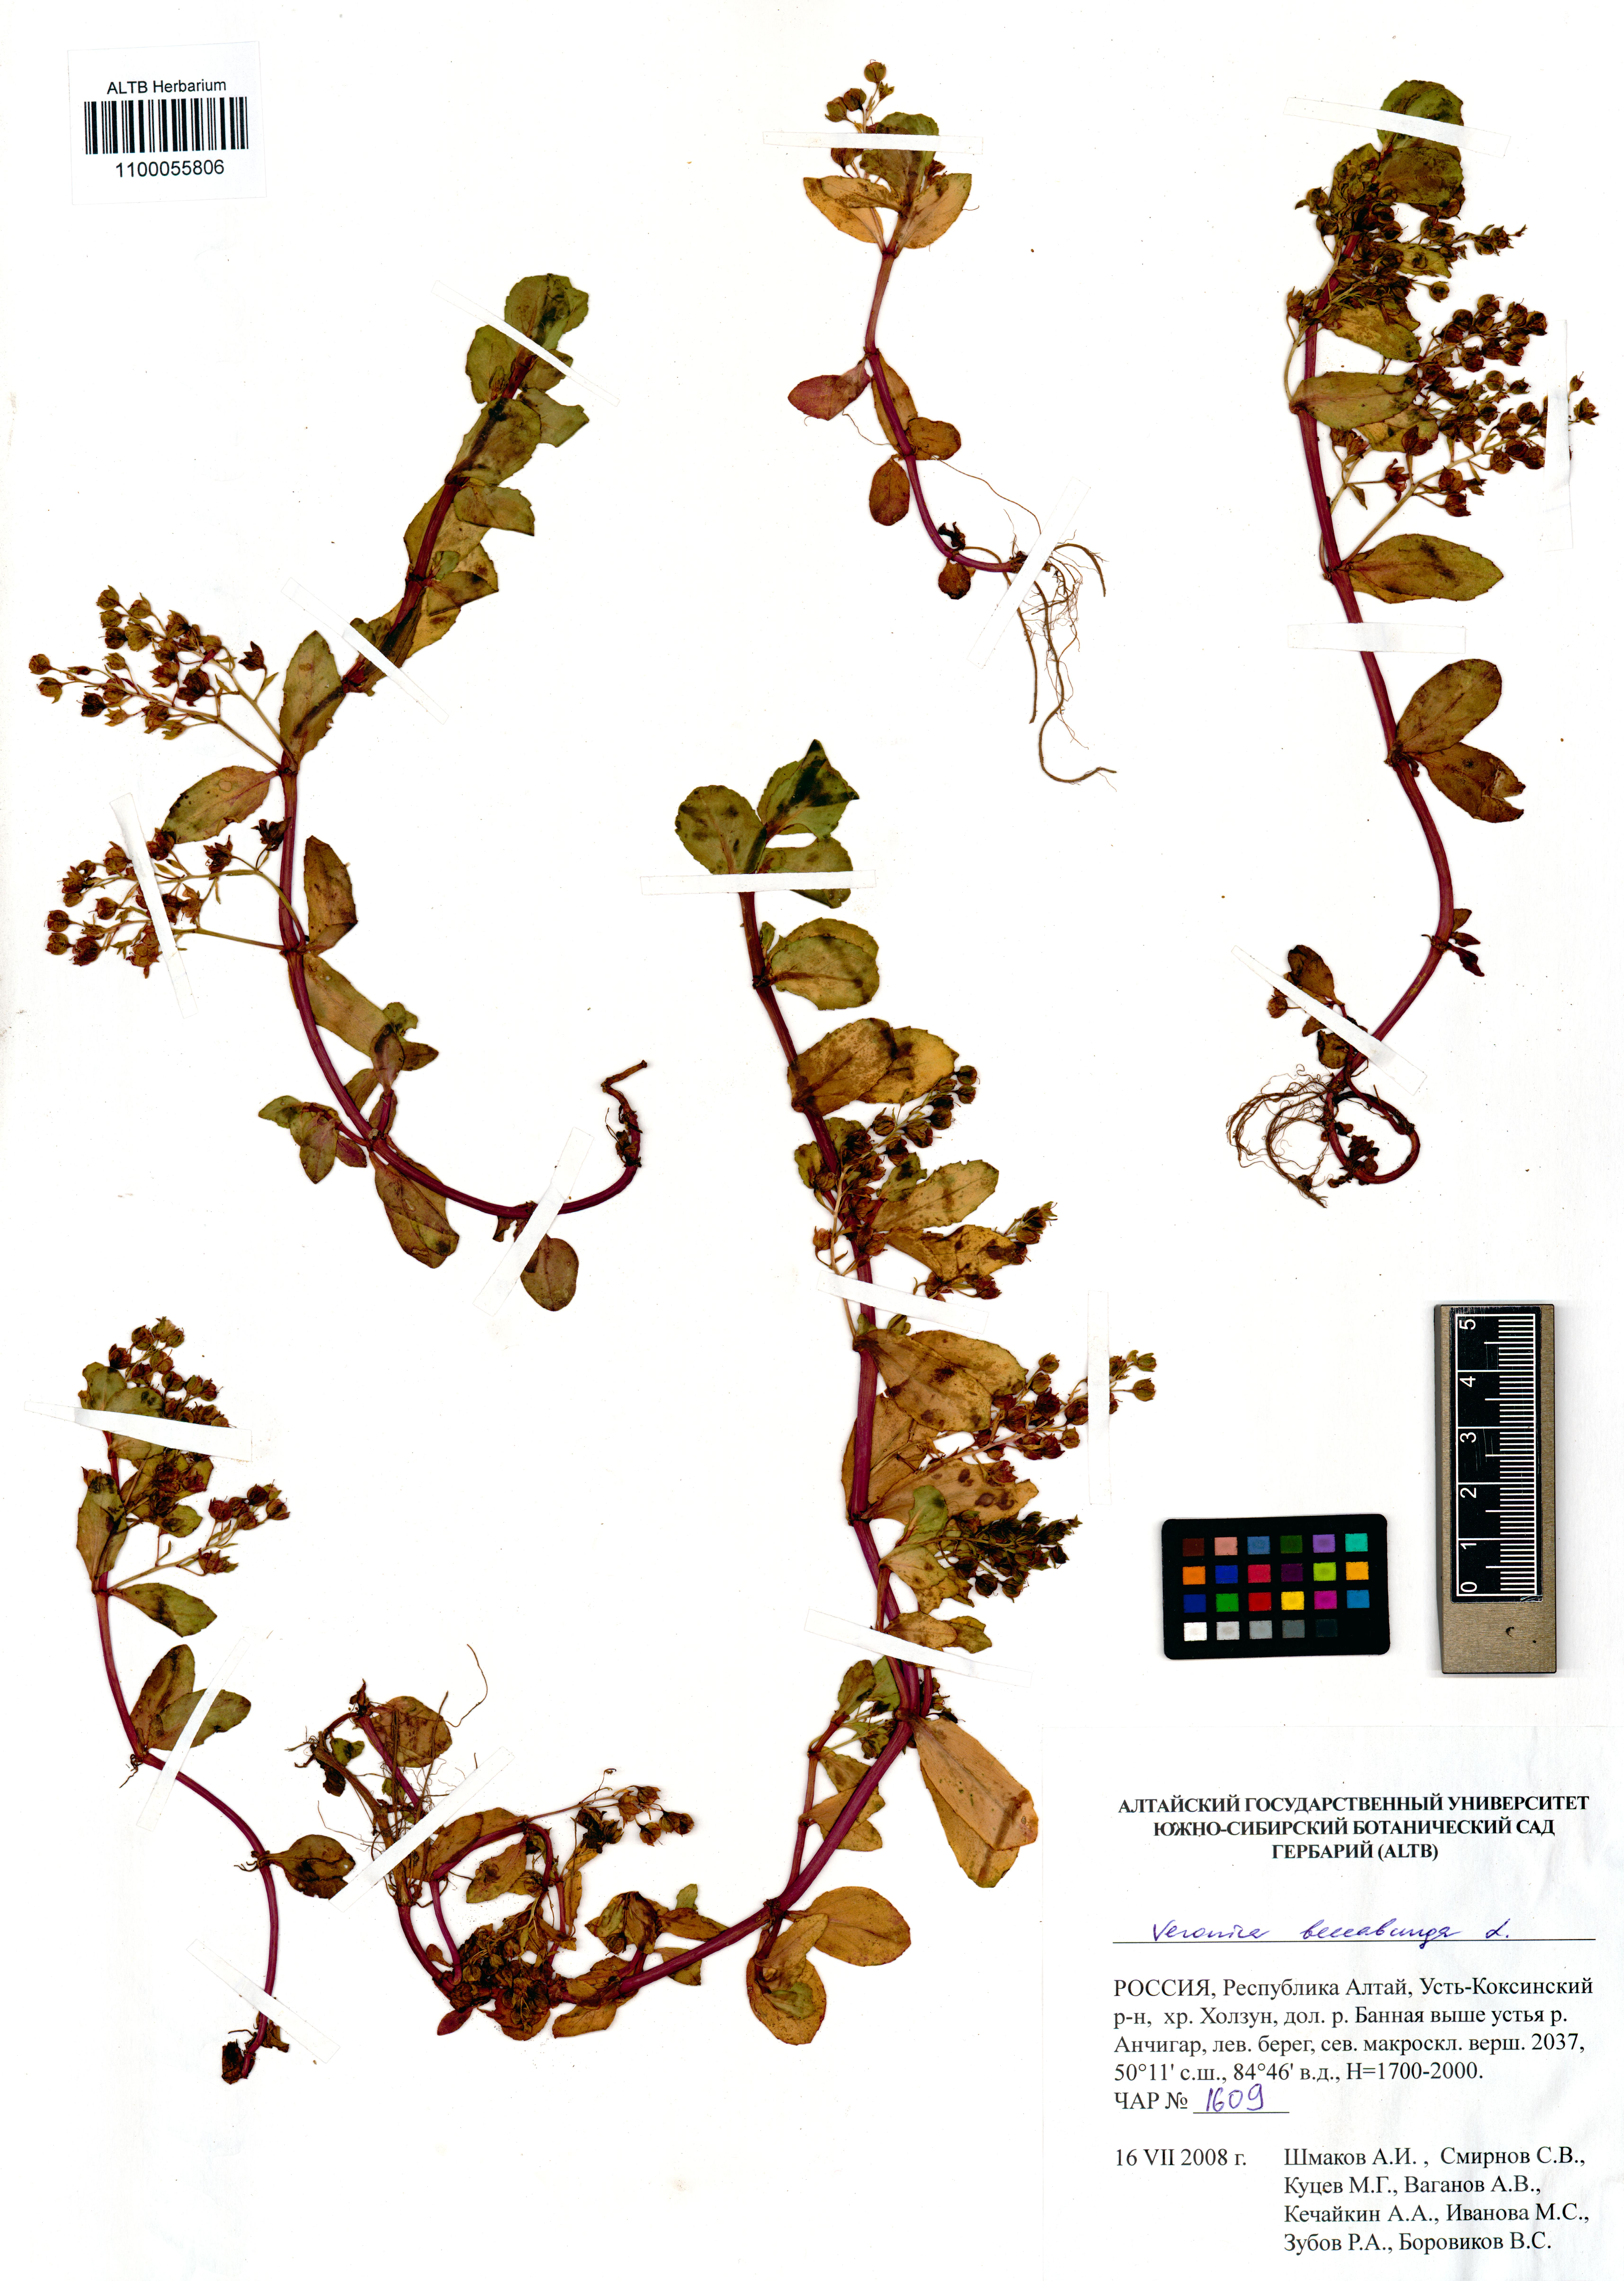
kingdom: Plantae
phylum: Tracheophyta
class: Magnoliopsida
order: Lamiales
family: Plantaginaceae
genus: Veronica
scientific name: Veronica beccabunga
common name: Brooklime
